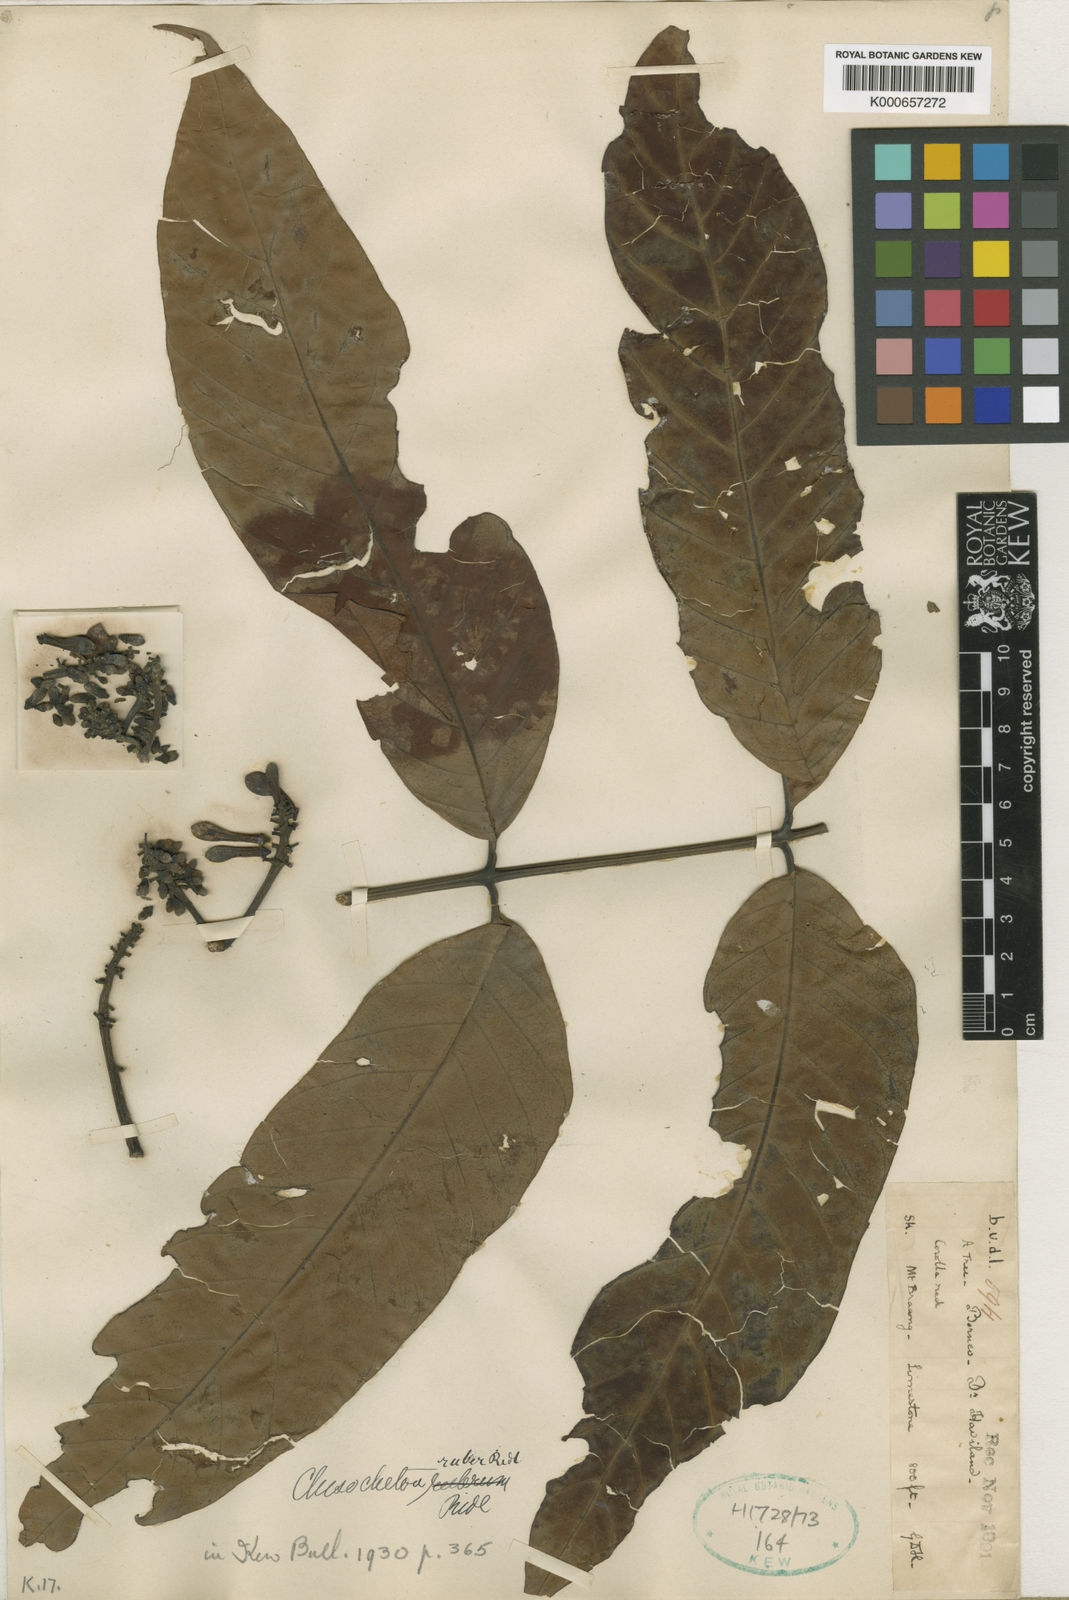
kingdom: Plantae
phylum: Tracheophyta
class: Magnoliopsida
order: Sapindales
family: Meliaceae
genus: Chisocheton
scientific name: Chisocheton ruber
